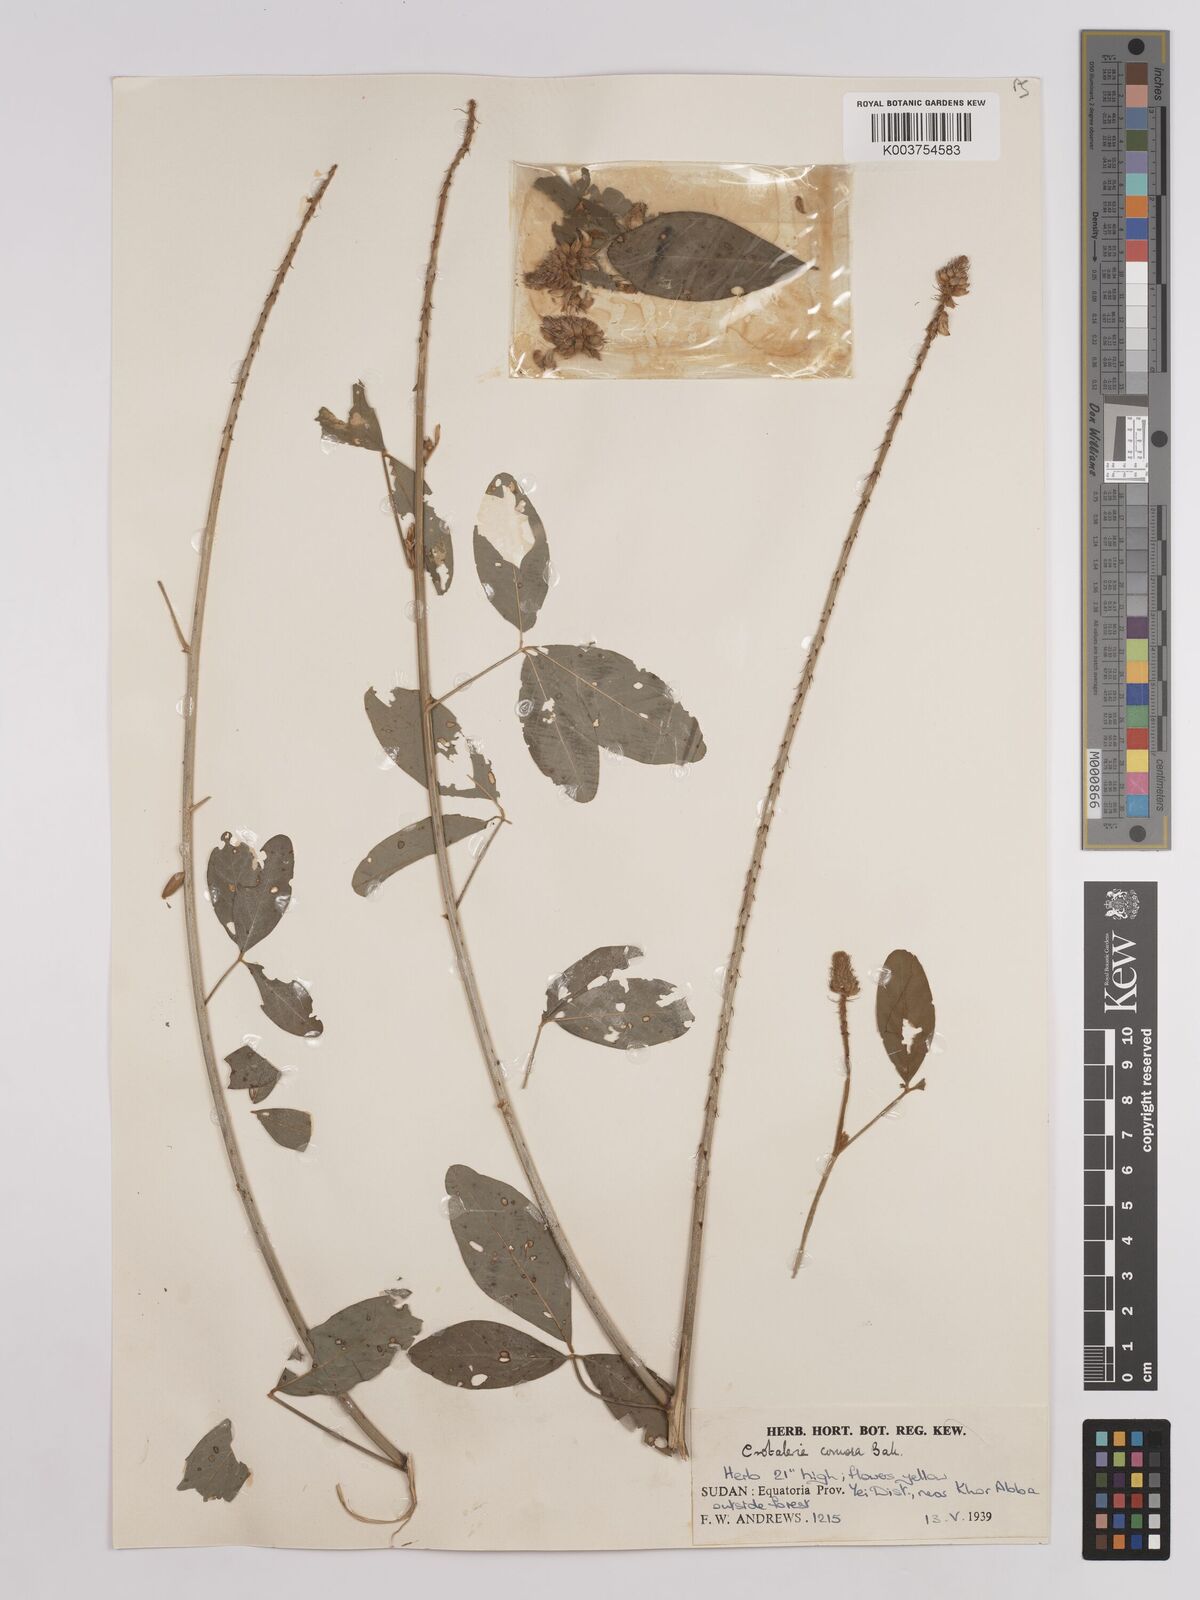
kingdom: Plantae
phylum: Tracheophyta
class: Magnoliopsida
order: Fabales
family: Fabaceae
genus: Crotalaria
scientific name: Crotalaria comosa
